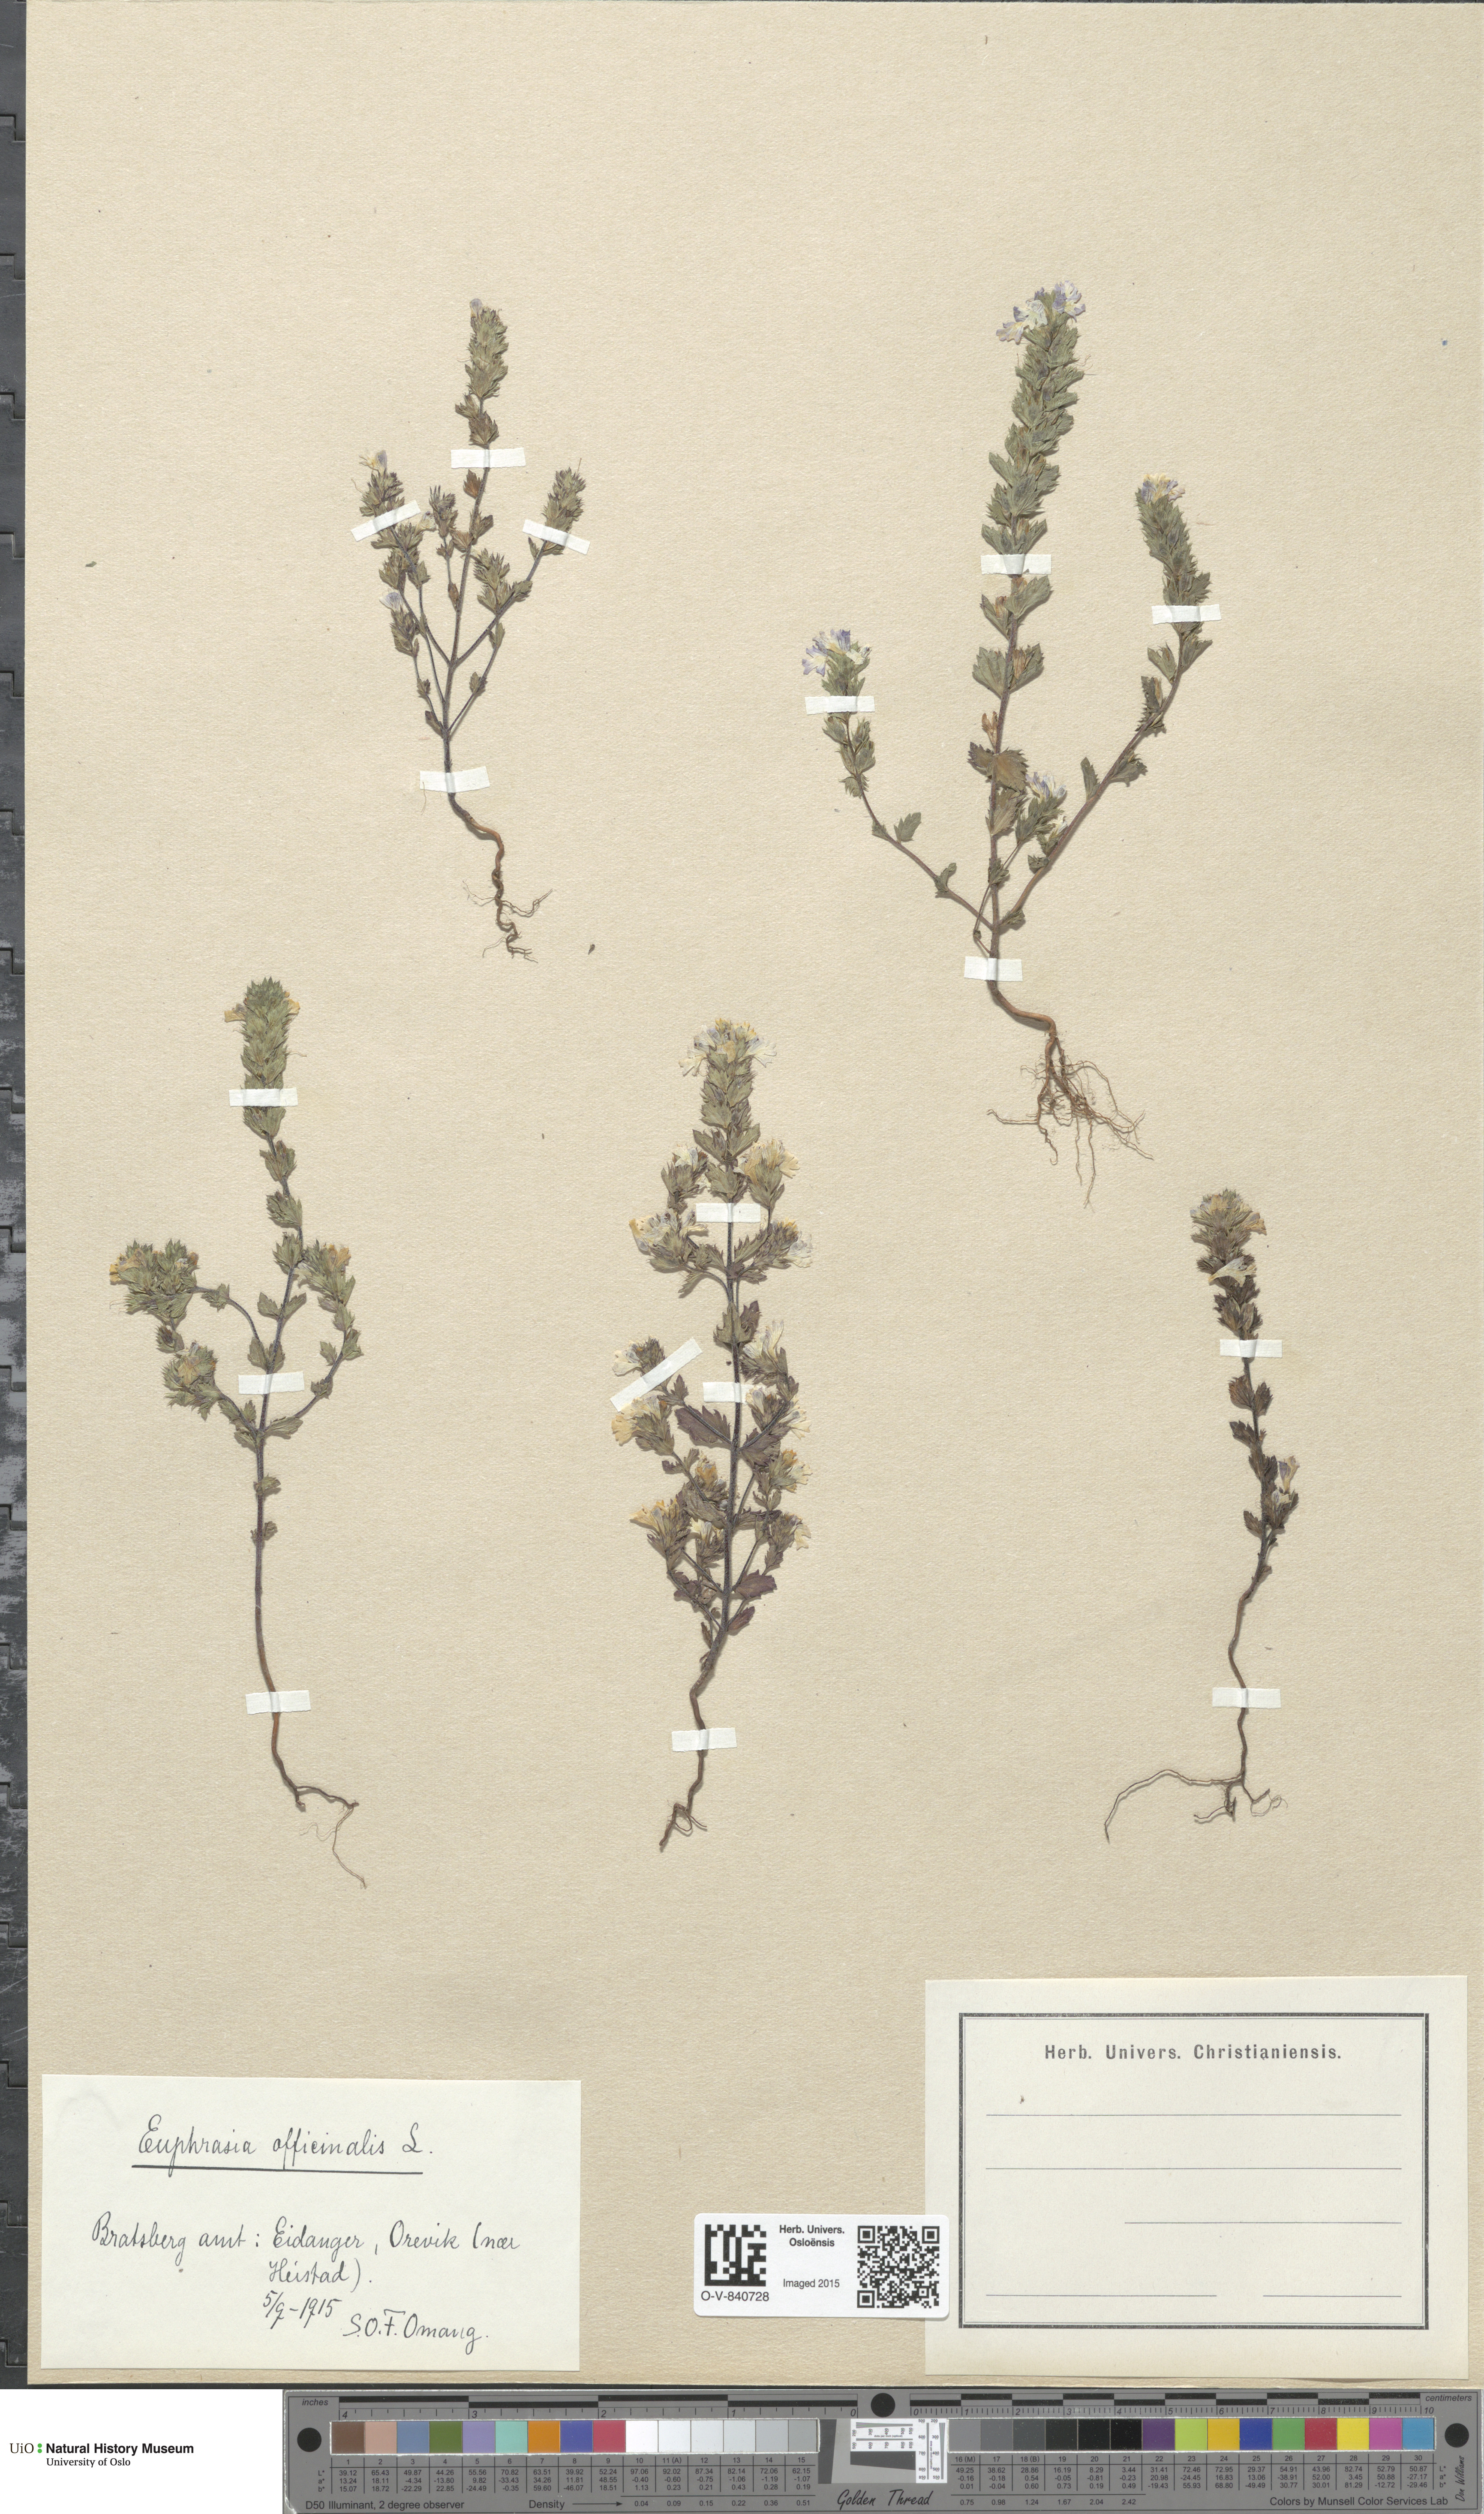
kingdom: Plantae
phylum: Tracheophyta
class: Magnoliopsida
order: Lamiales
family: Orobanchaceae
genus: Euphrasia
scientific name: Euphrasia stricta
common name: Drug eyebright
